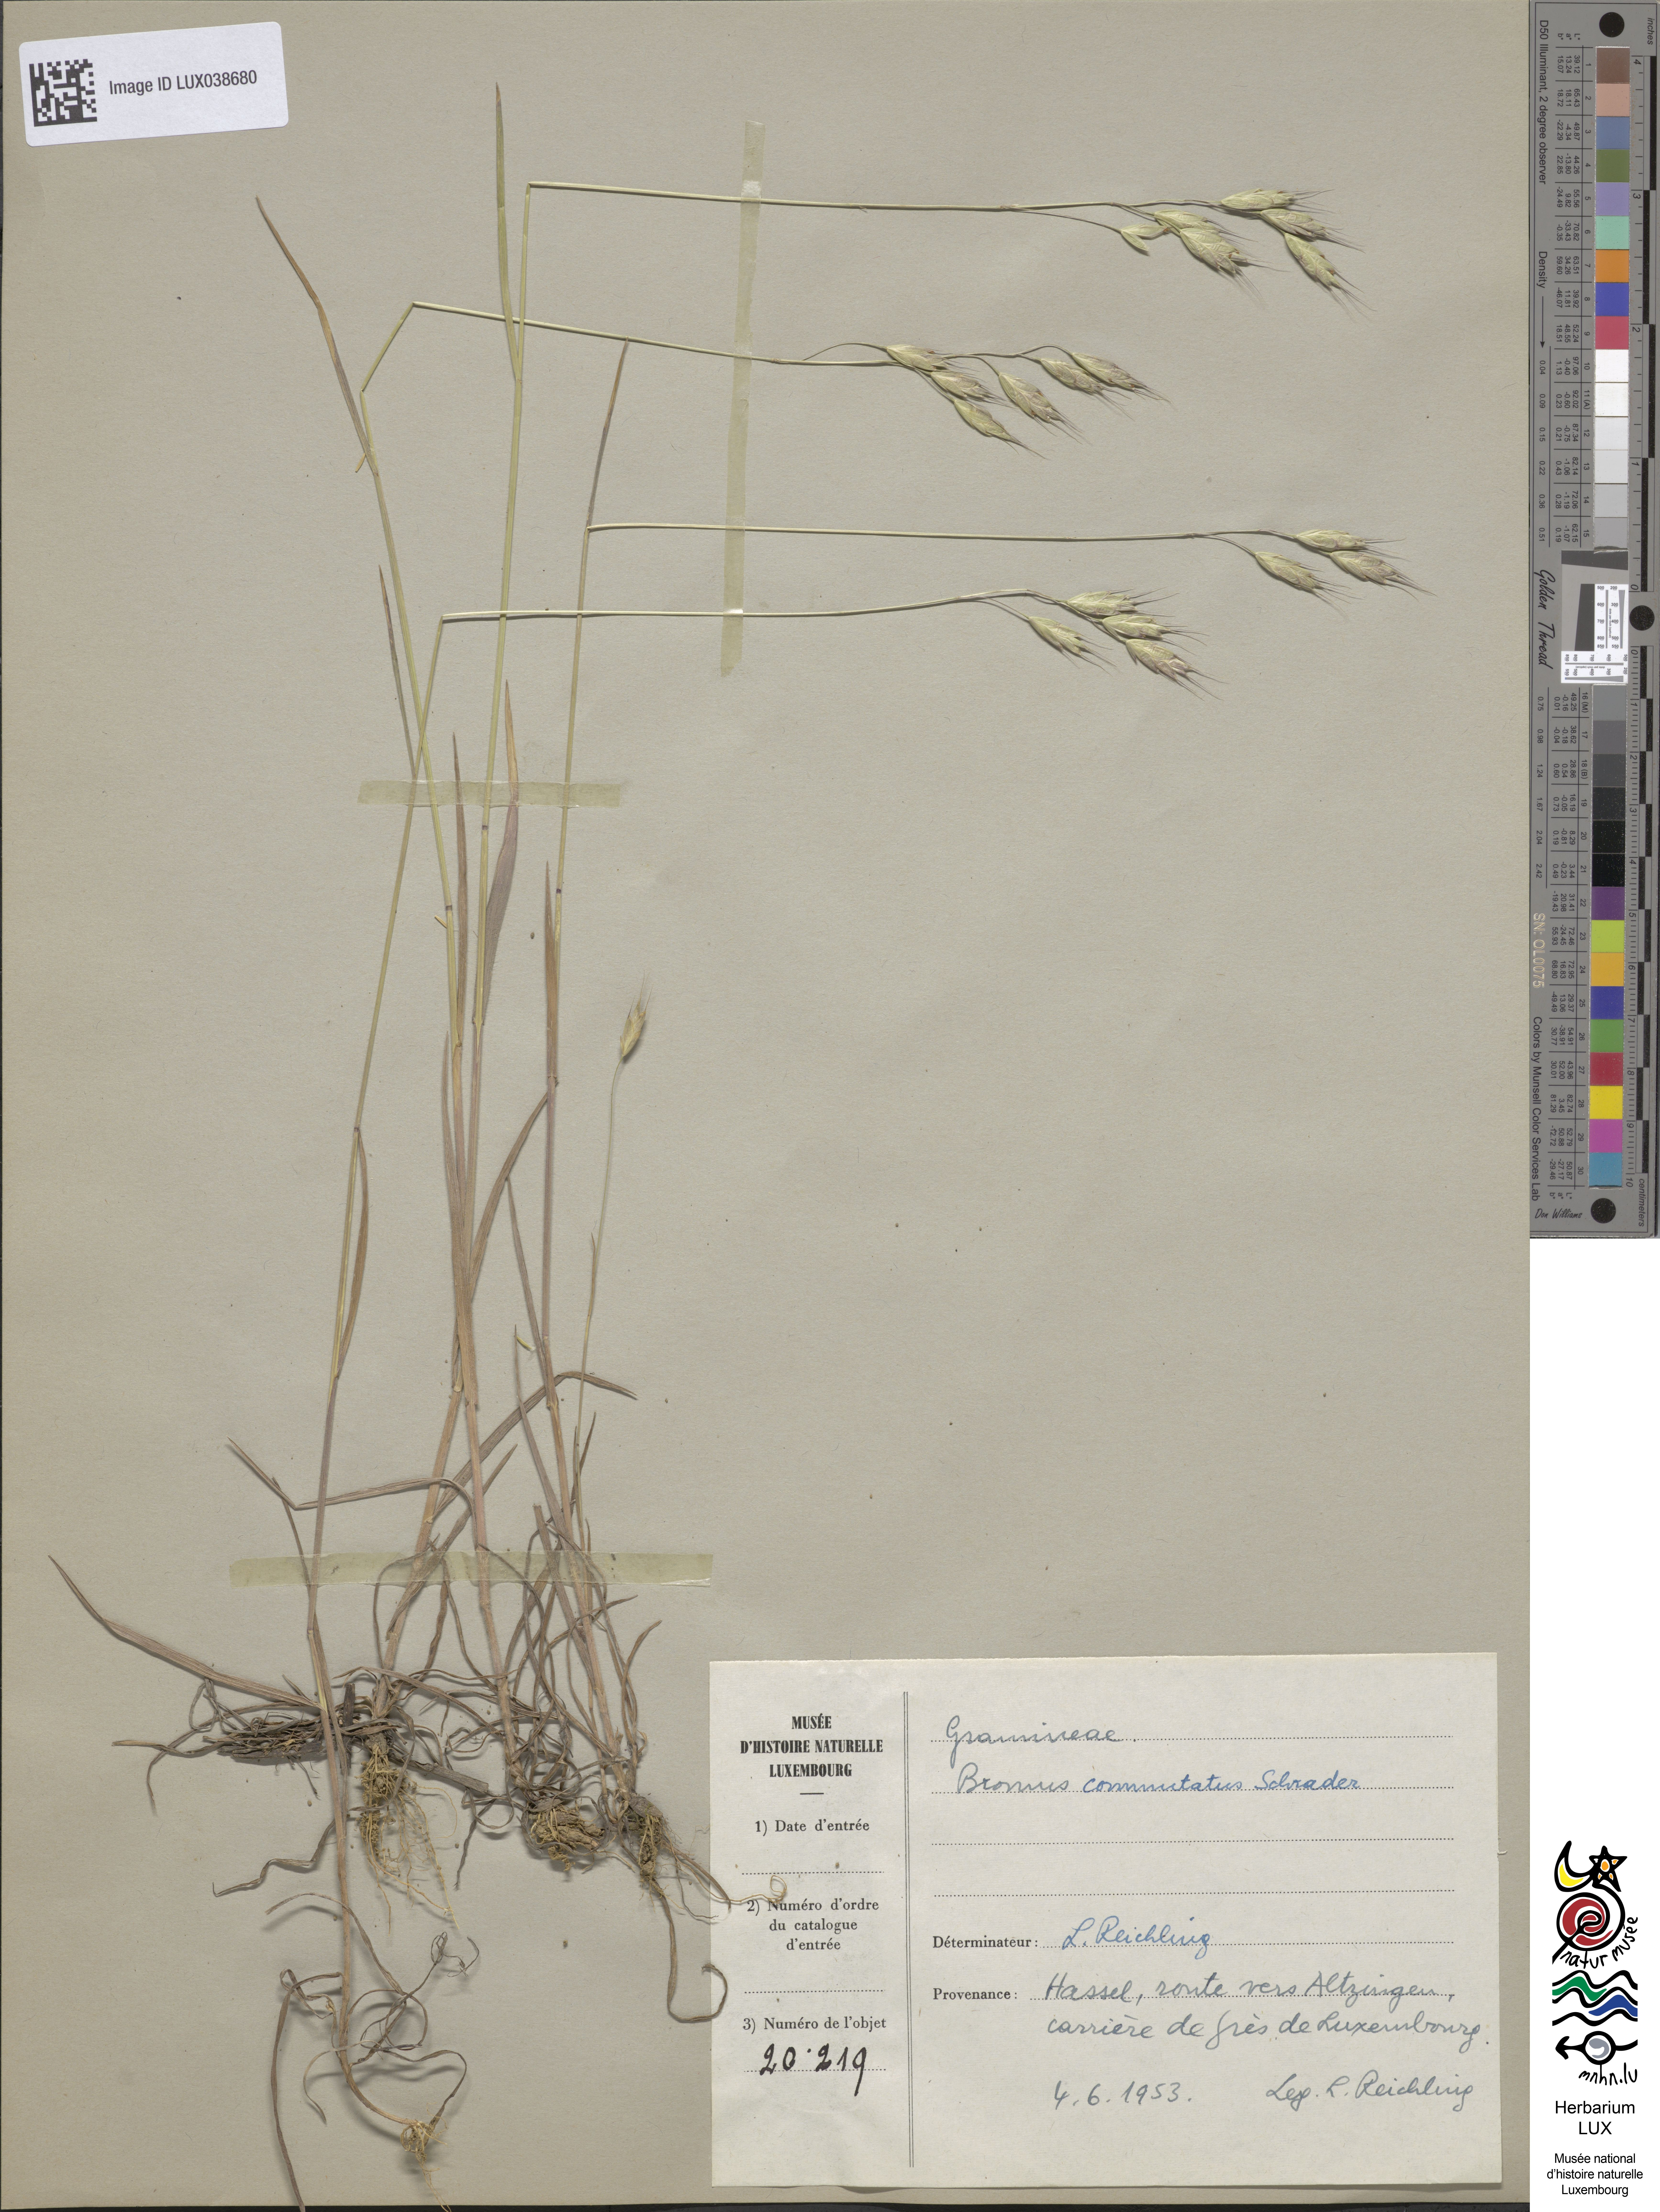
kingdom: Plantae
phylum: Tracheophyta
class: Liliopsida
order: Poales
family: Poaceae
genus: Bromus
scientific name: Bromus commutatus
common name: Meadow brome
